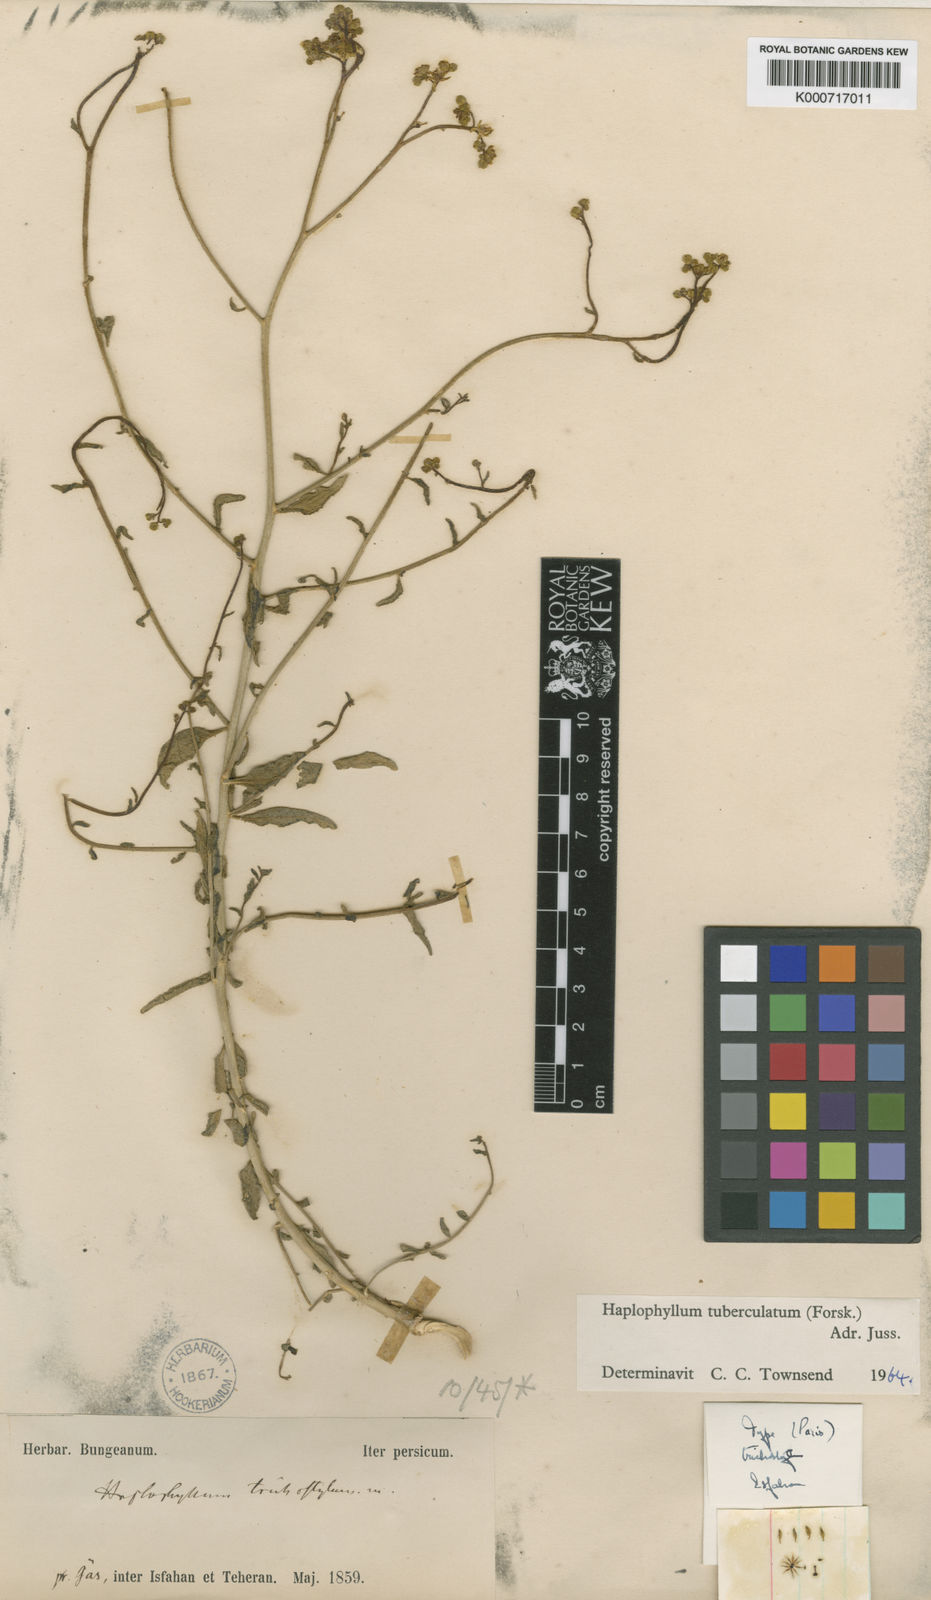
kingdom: Plantae
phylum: Tracheophyta
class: Magnoliopsida
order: Sapindales
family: Rutaceae
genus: Haplophyllum
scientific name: Haplophyllum tuberculatum
